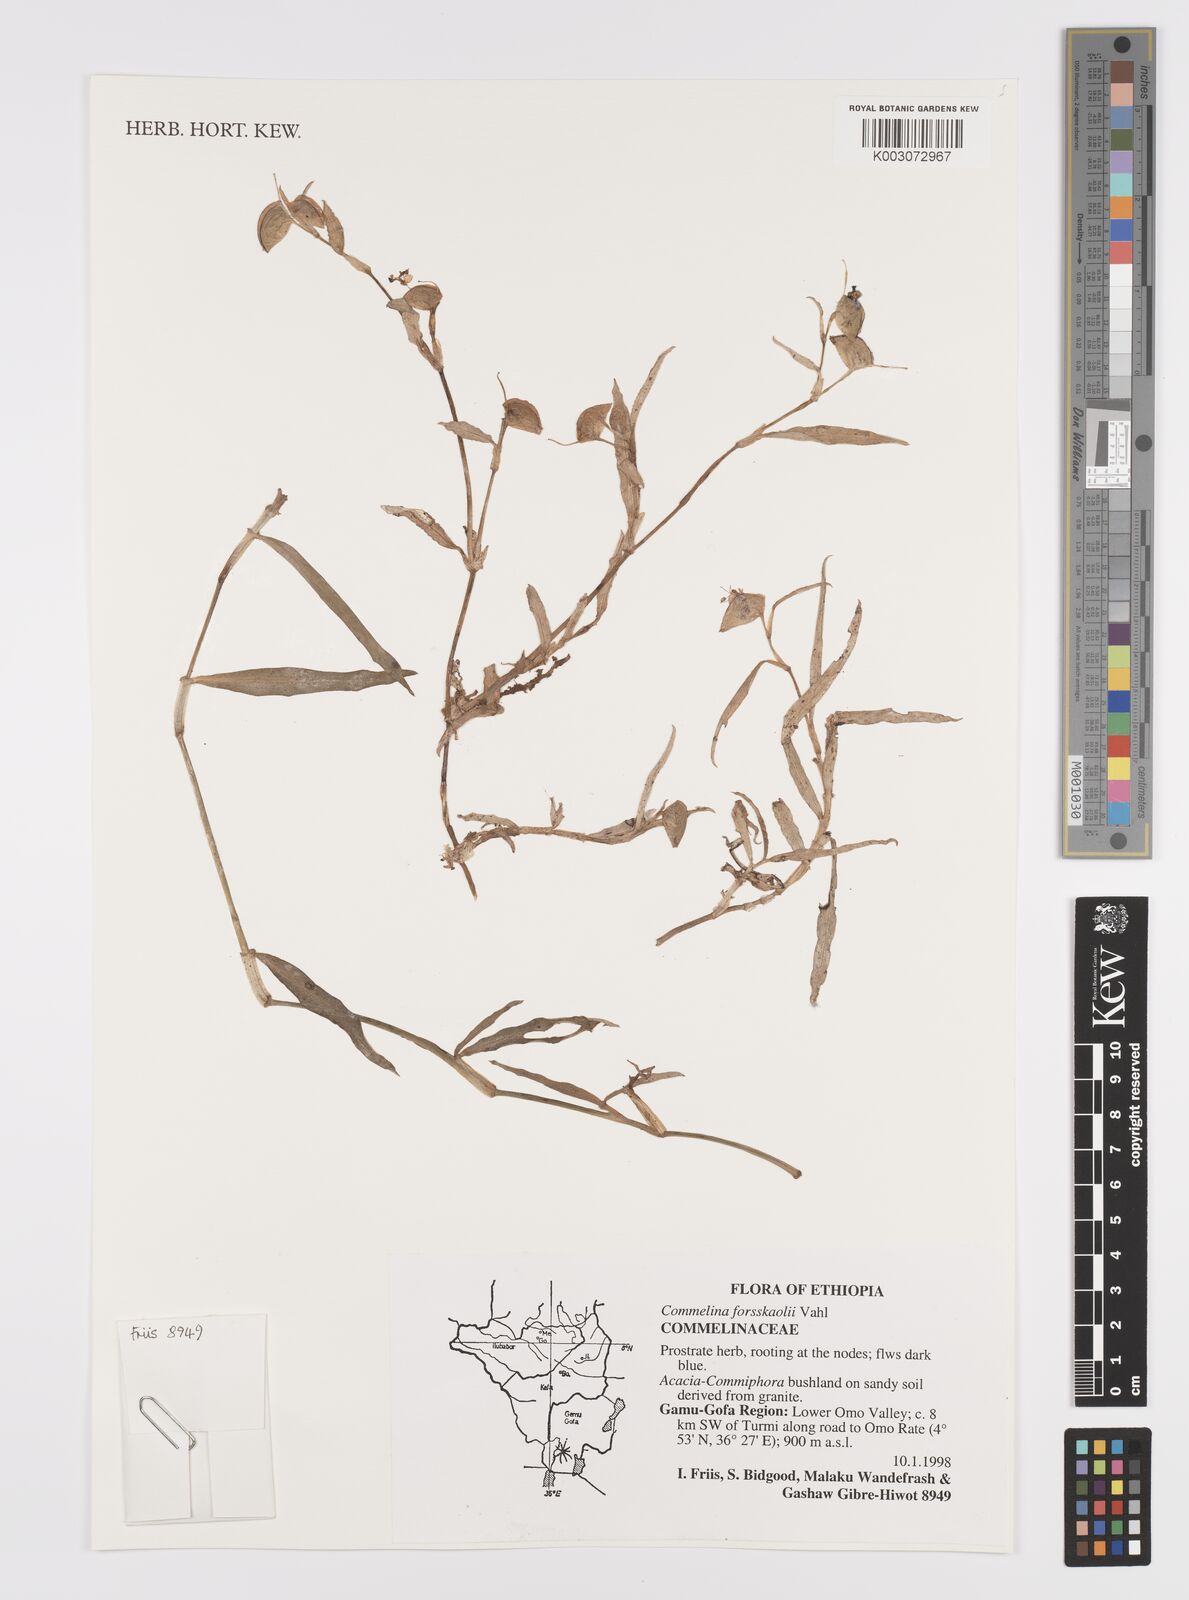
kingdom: Plantae
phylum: Tracheophyta
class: Liliopsida
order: Commelinales
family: Commelinaceae
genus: Commelina
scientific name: Commelina forskaolii
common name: Rat's ear
